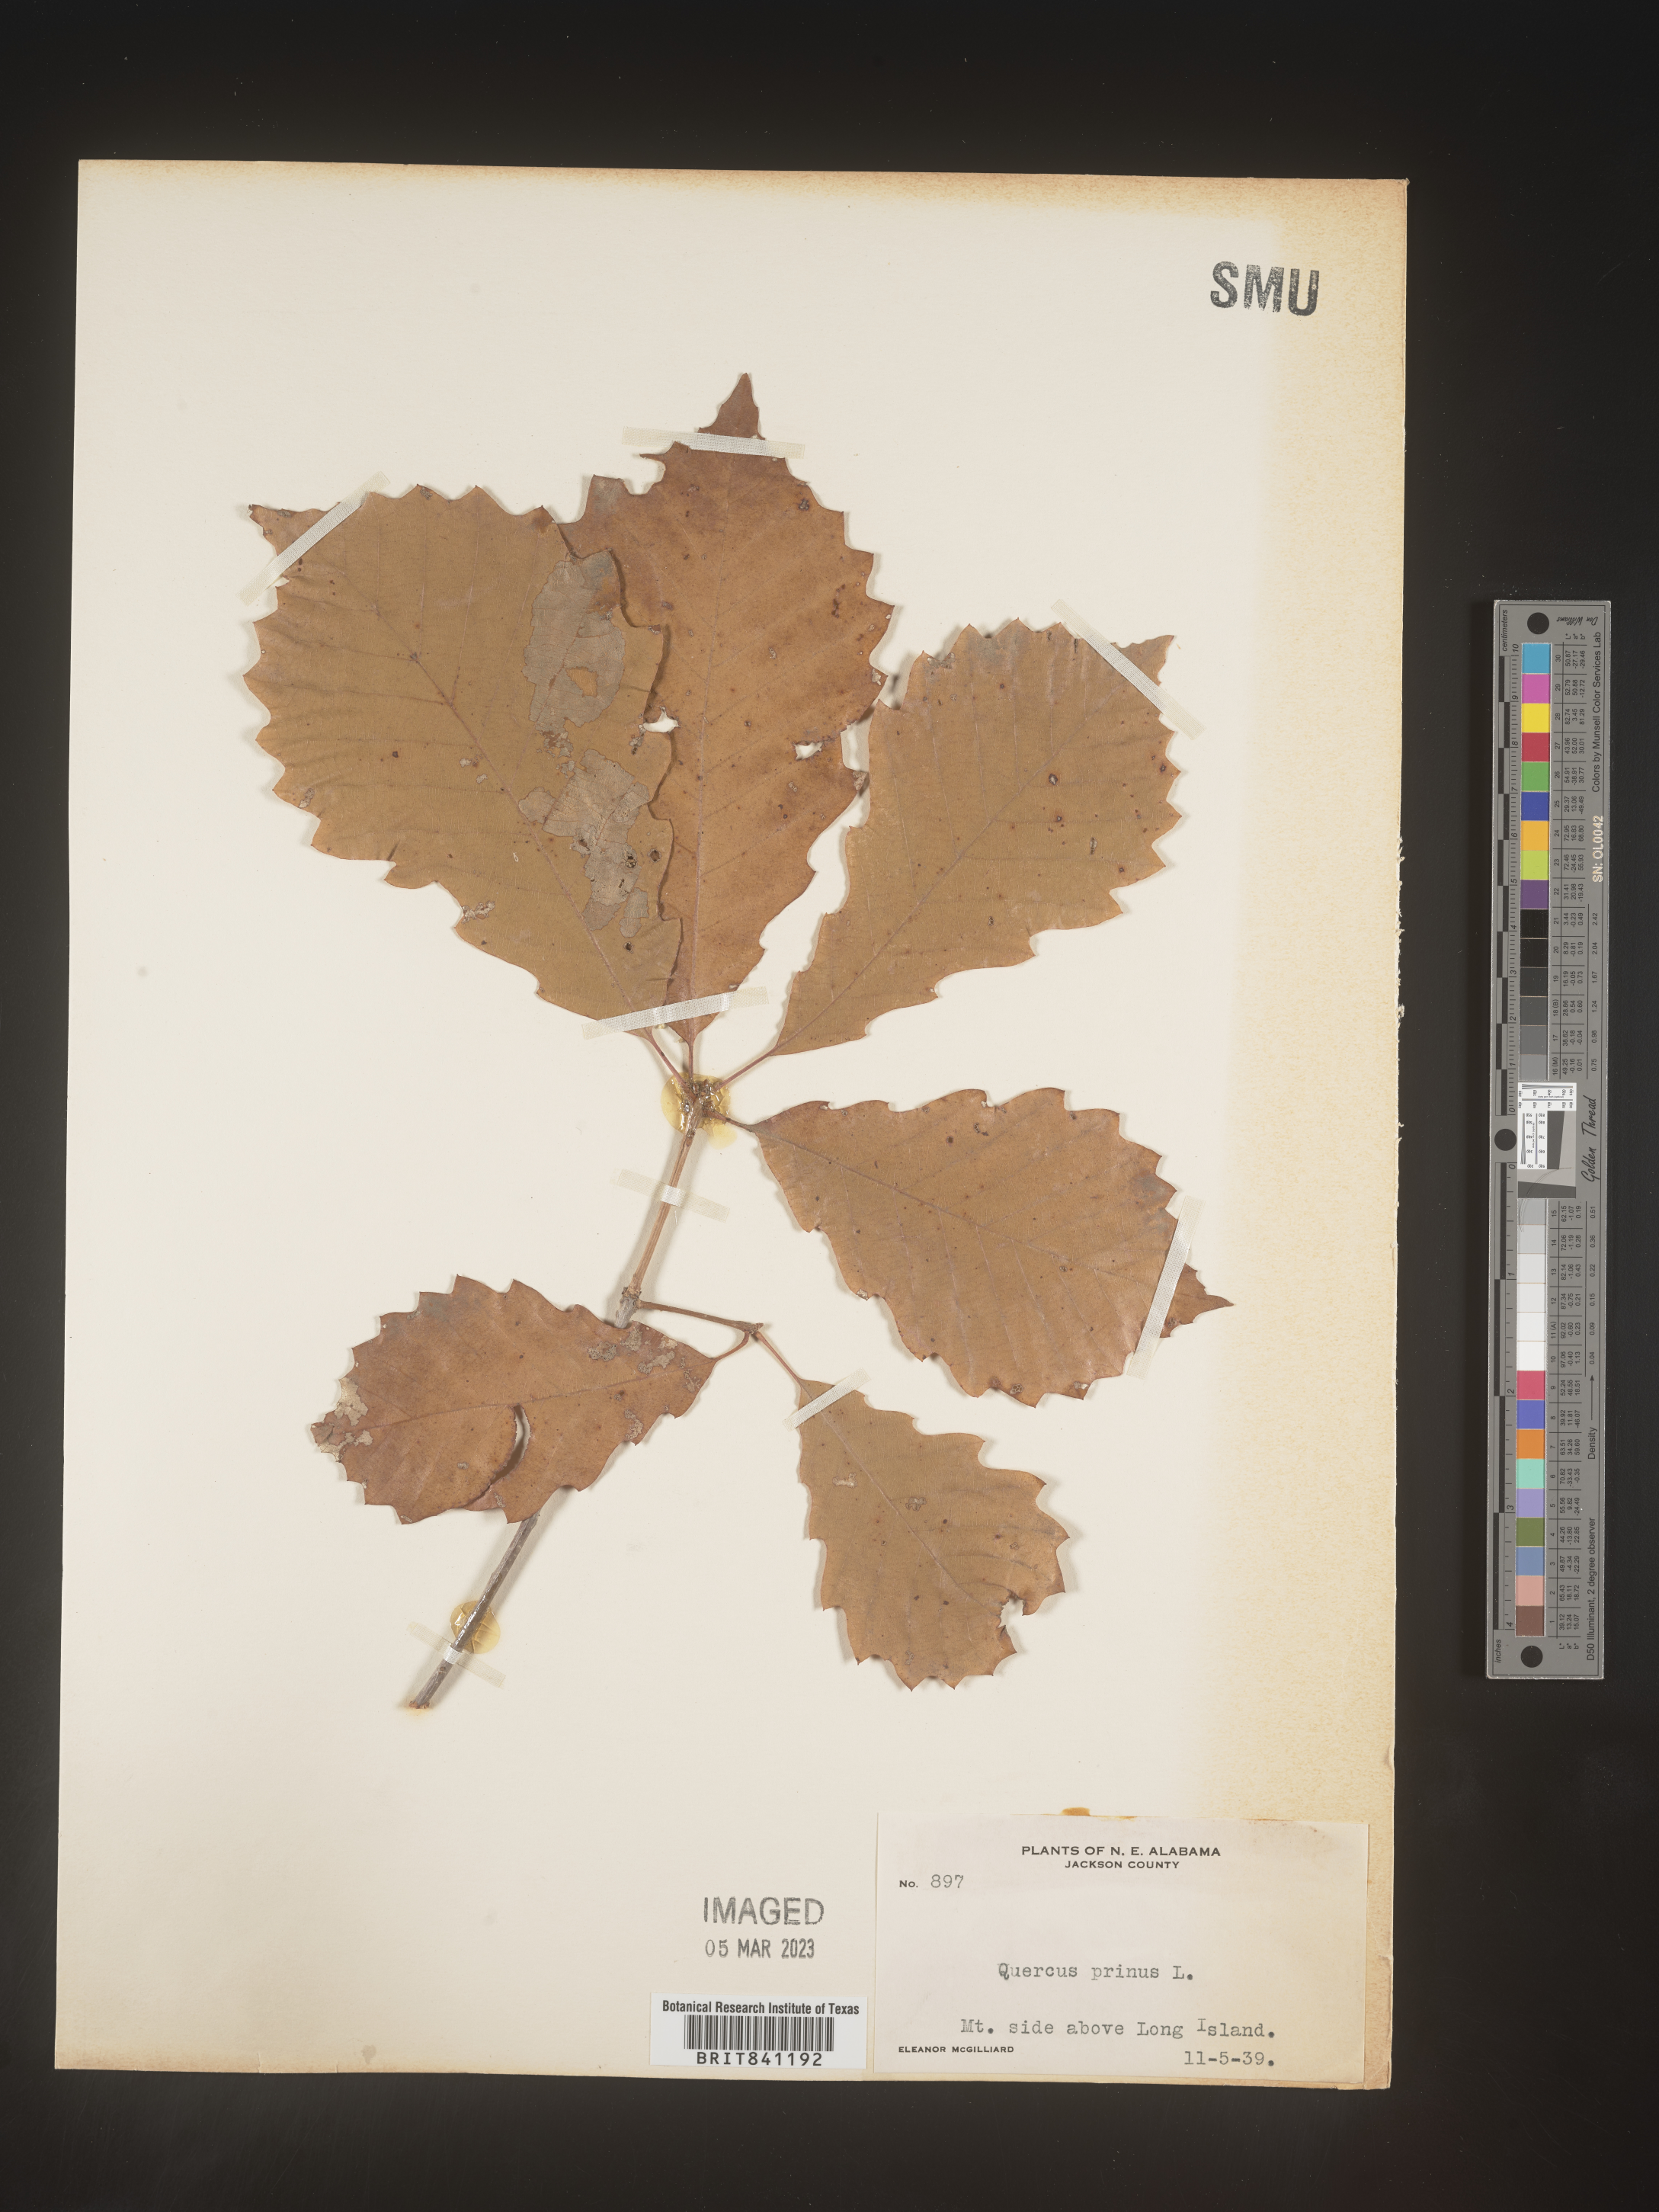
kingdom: Plantae
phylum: Tracheophyta
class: Magnoliopsida
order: Fagales
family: Fagaceae
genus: Quercus
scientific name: Quercus michauxii
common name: Swamp chestnut oak
